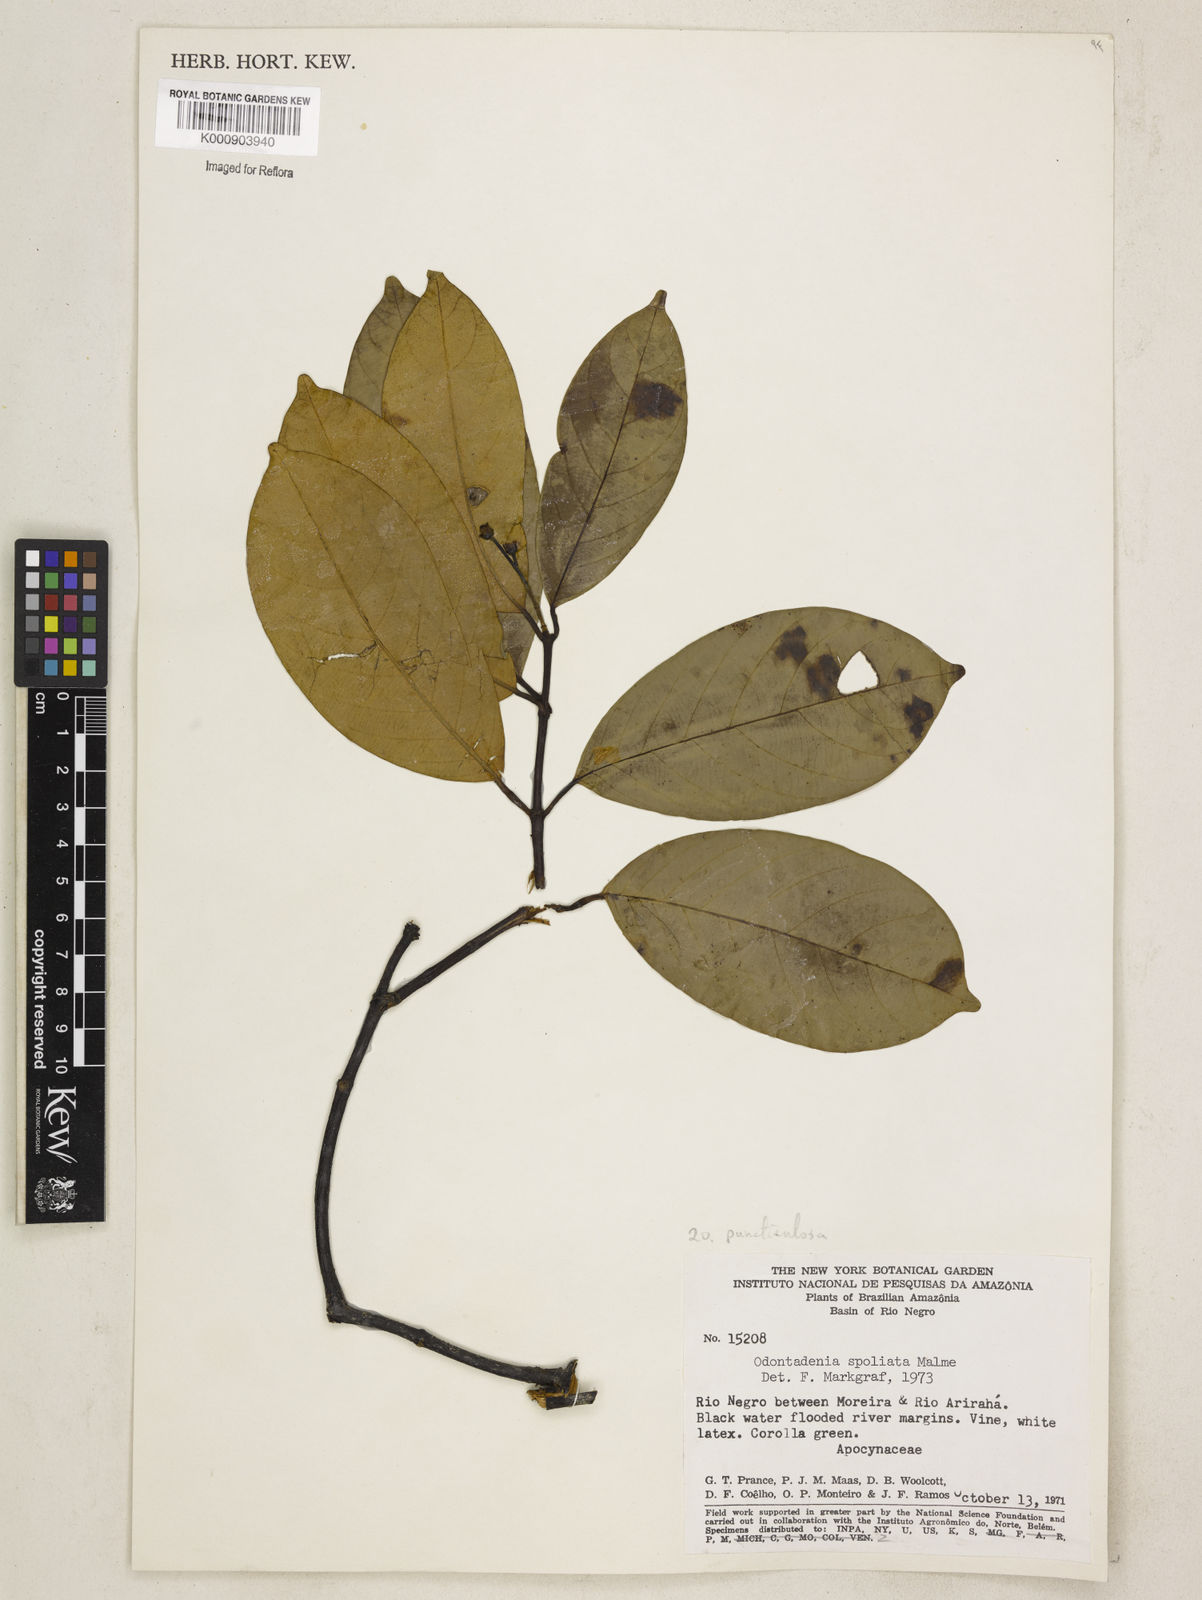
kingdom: Plantae
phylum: Tracheophyta
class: Magnoliopsida
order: Gentianales
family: Apocynaceae
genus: Odontadenia
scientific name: Odontadenia puncticulosa
